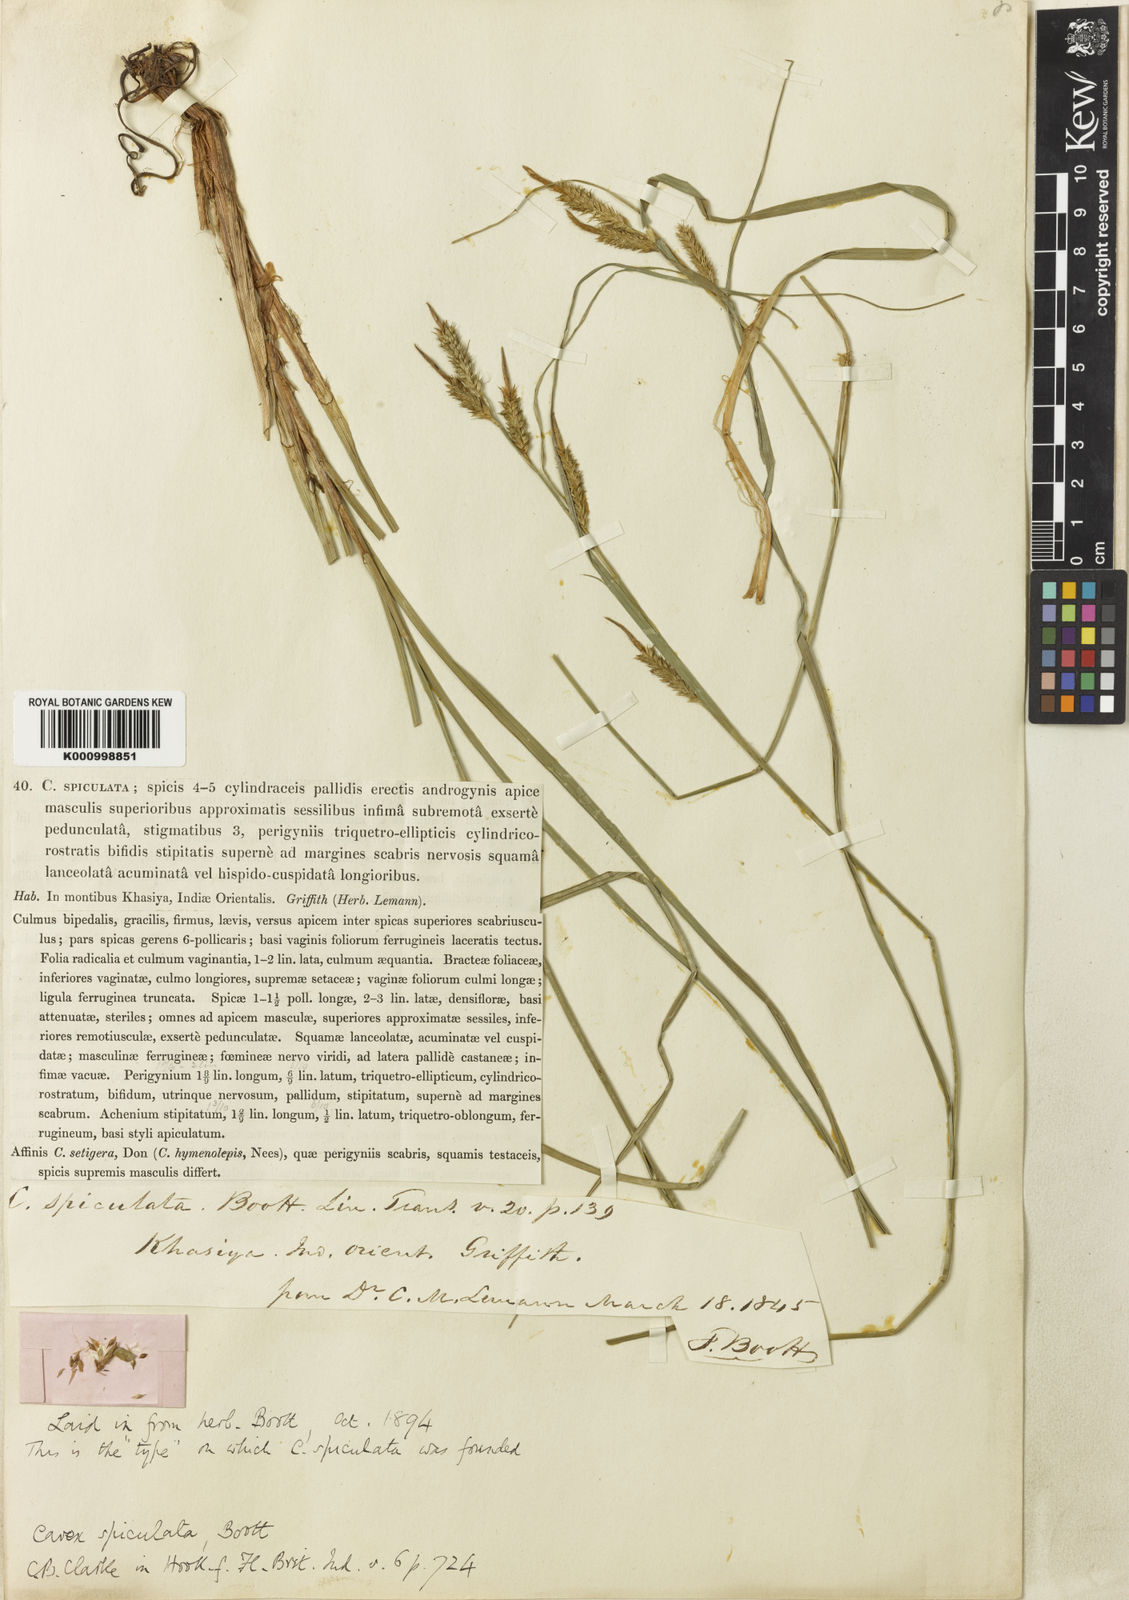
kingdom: Plantae
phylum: Tracheophyta
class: Liliopsida
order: Poales
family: Cyperaceae
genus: Carex
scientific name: Carex myosurus
